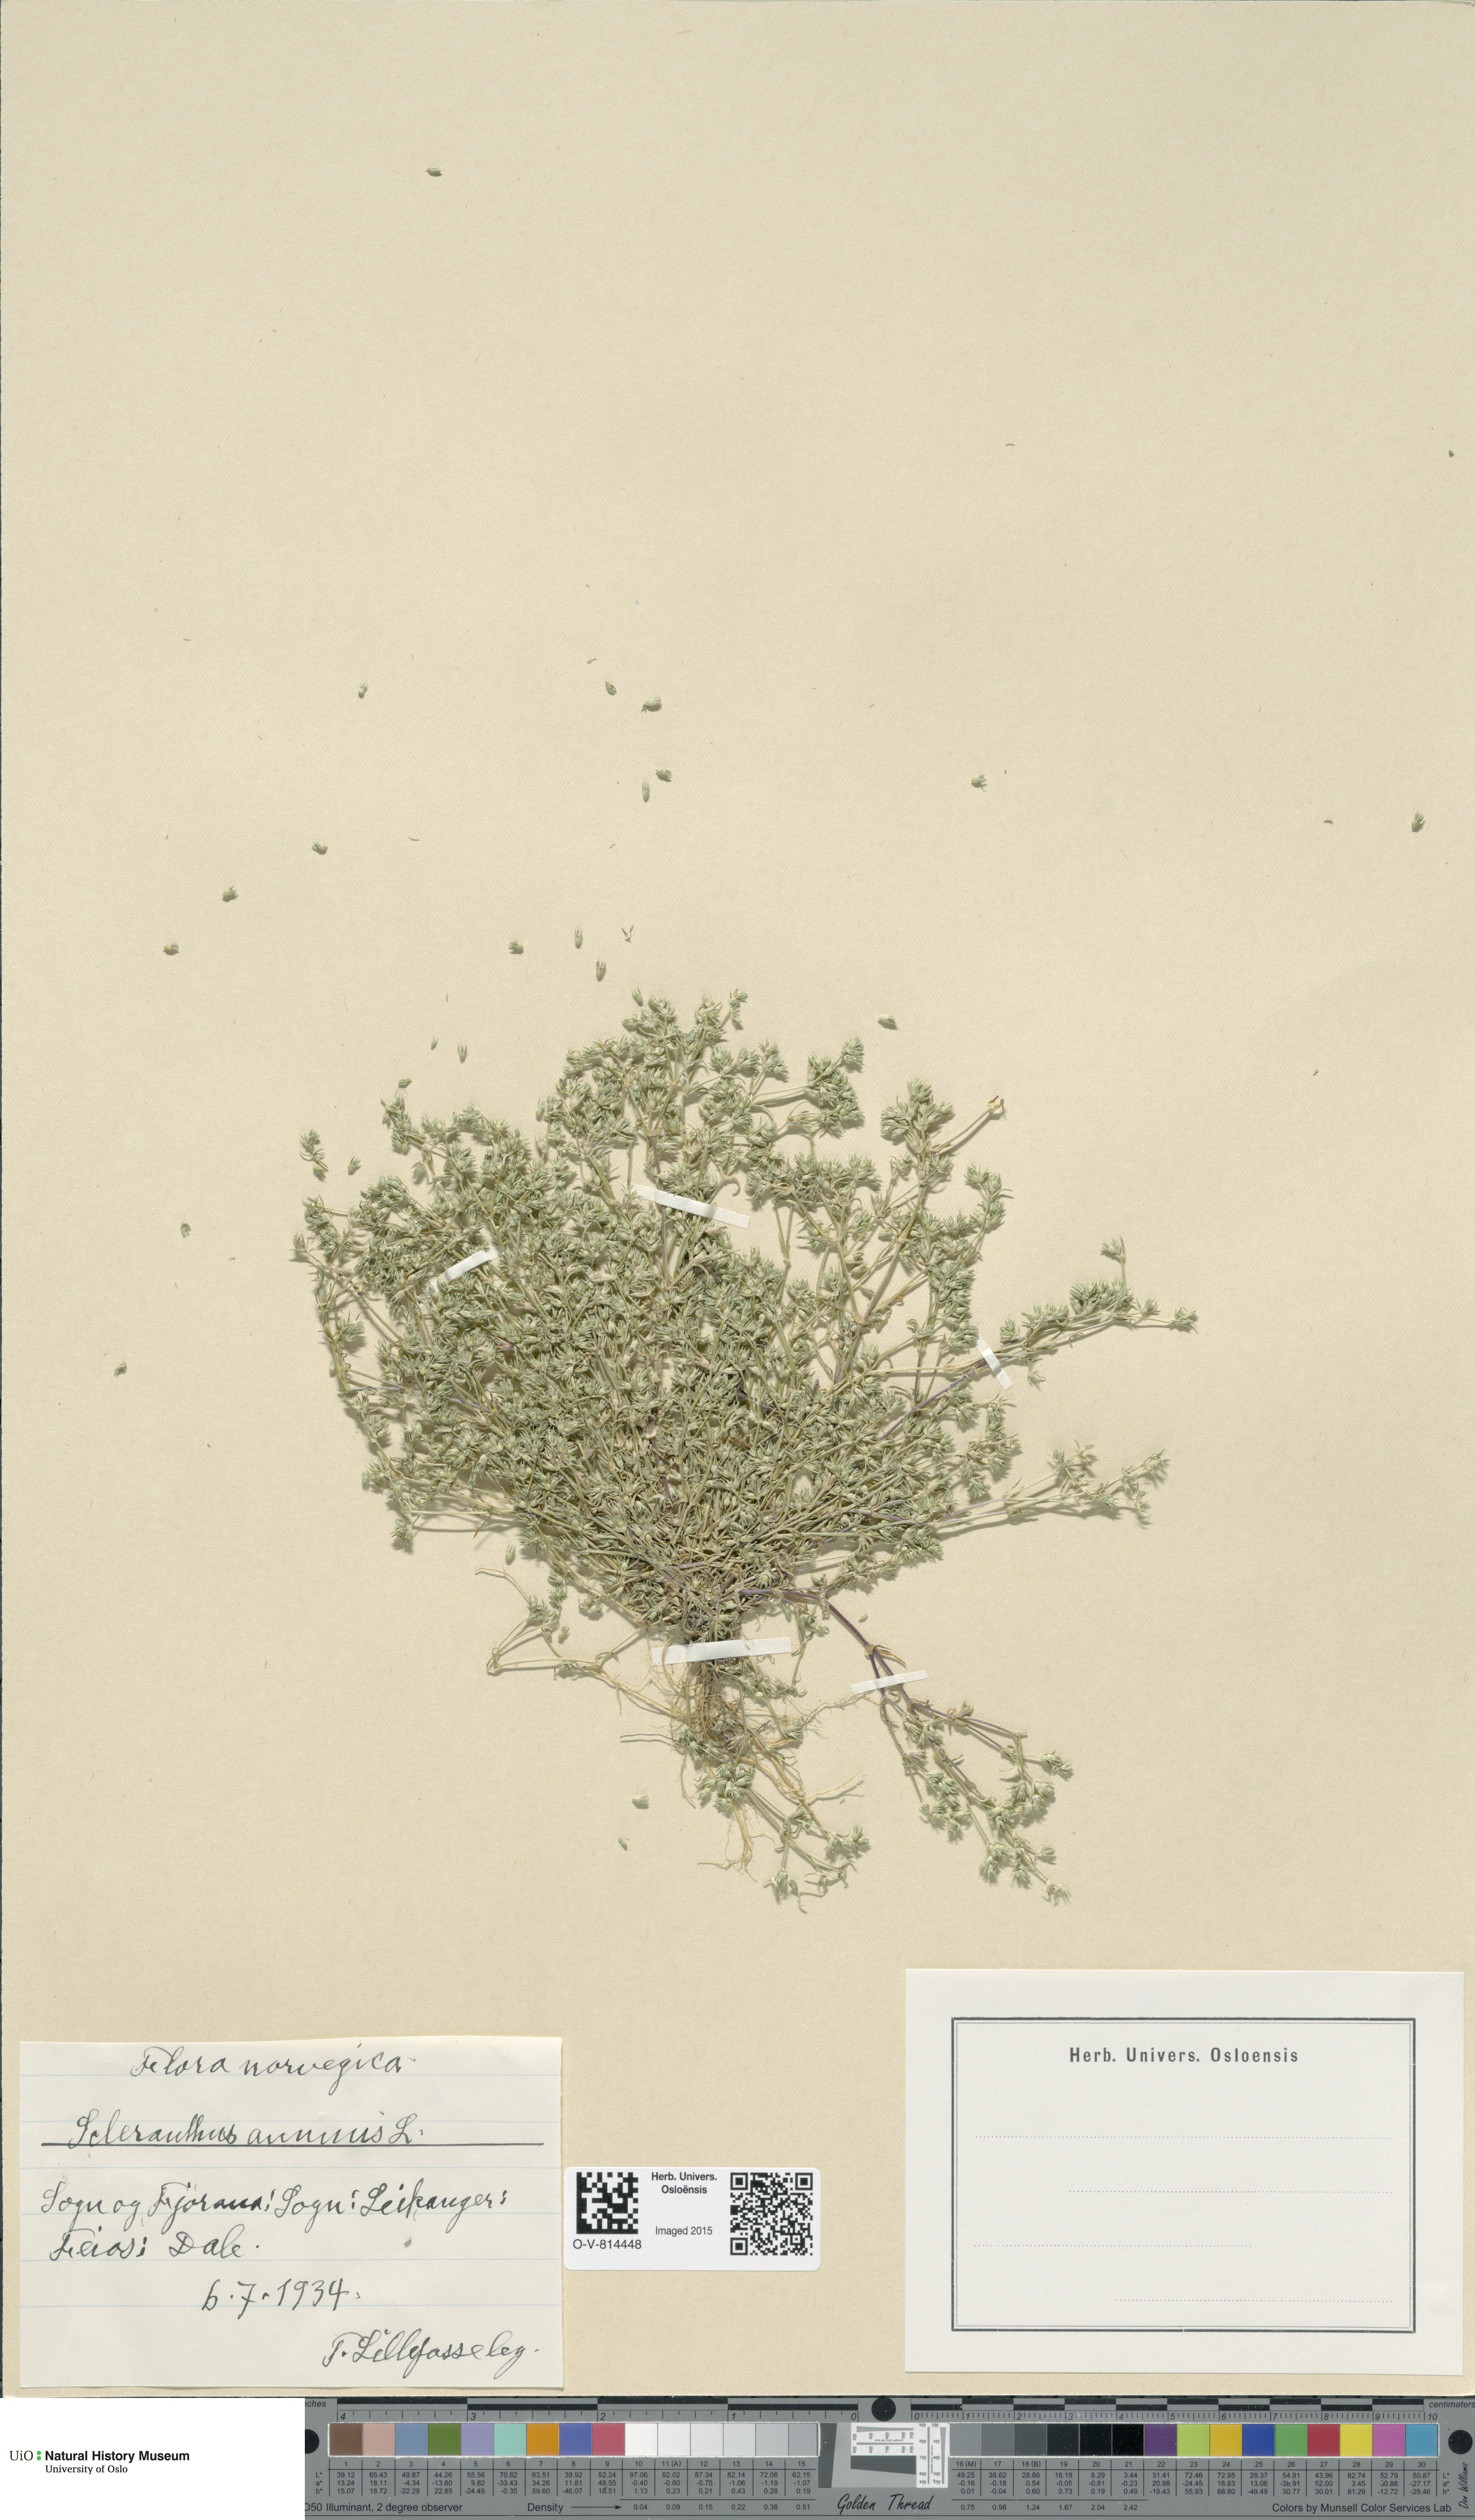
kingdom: Plantae
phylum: Tracheophyta
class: Magnoliopsida
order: Caryophyllales
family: Caryophyllaceae
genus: Scleranthus
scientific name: Scleranthus annuus
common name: Annual knawel
